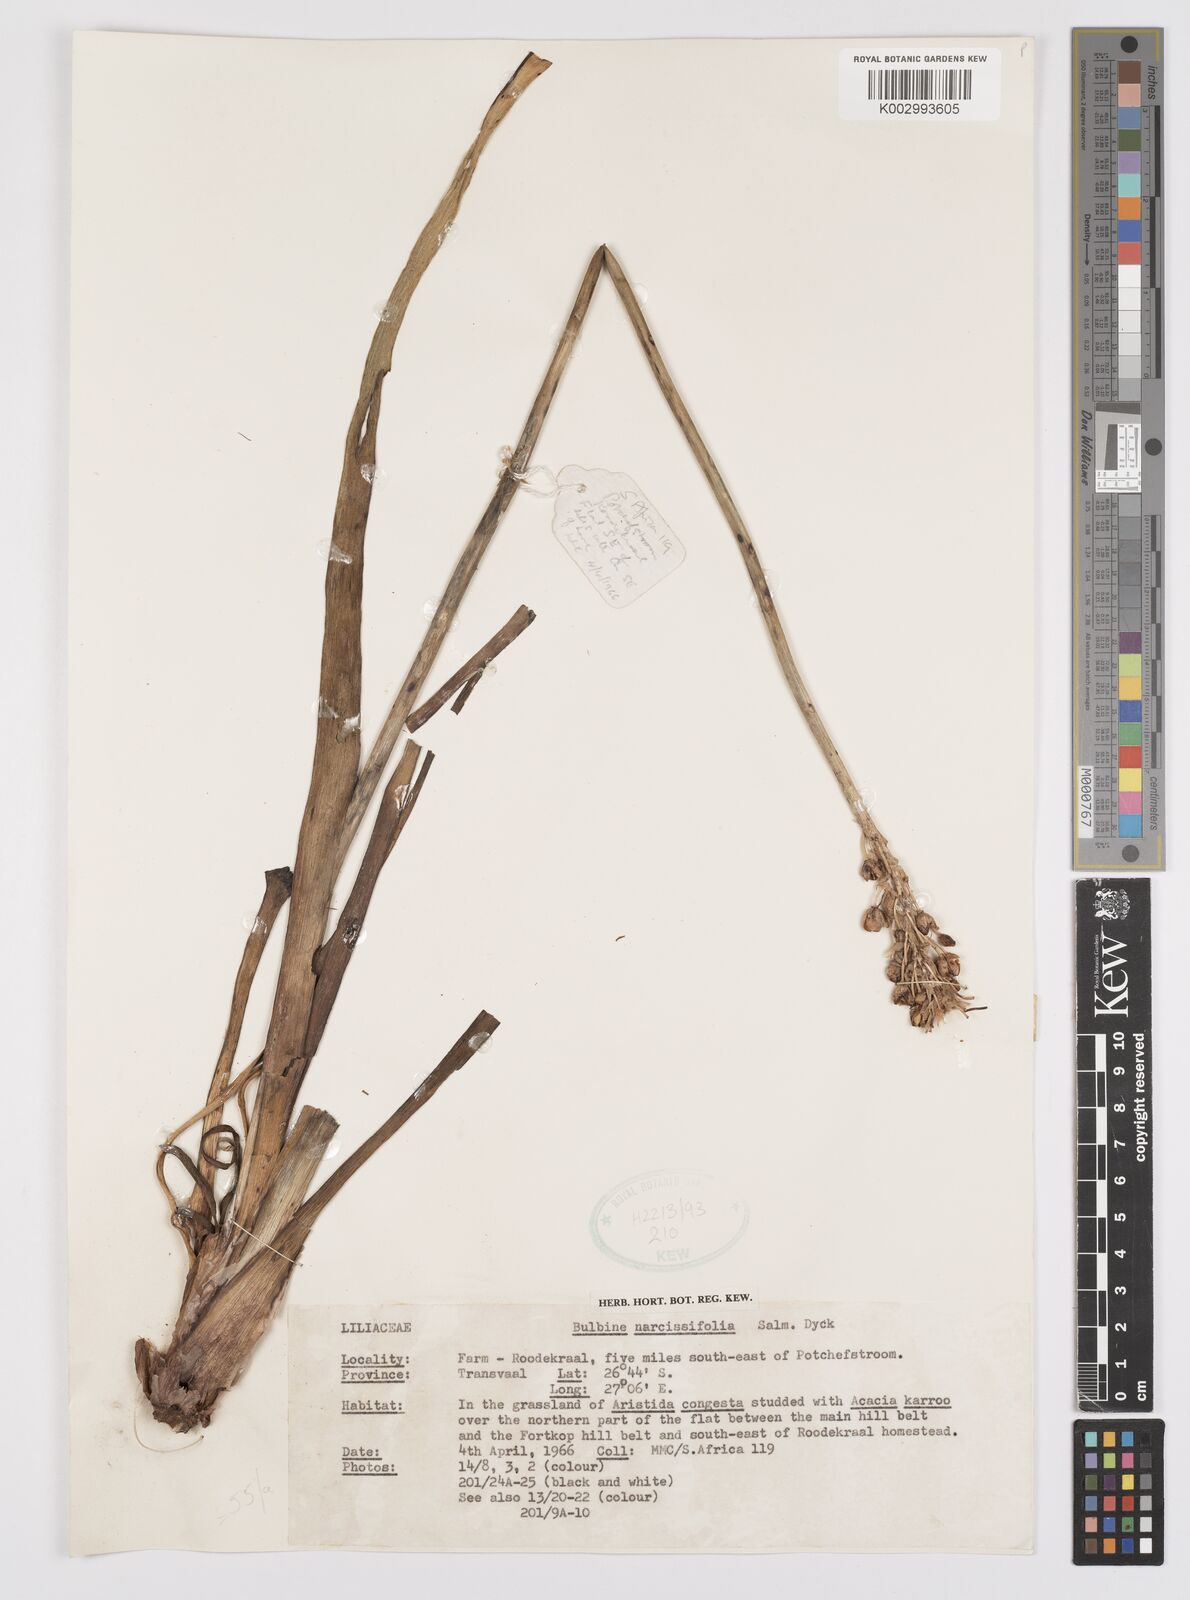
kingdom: Plantae
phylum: Tracheophyta
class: Liliopsida
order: Asparagales
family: Asphodelaceae
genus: Bulbine
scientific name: Bulbine narcissifolia
